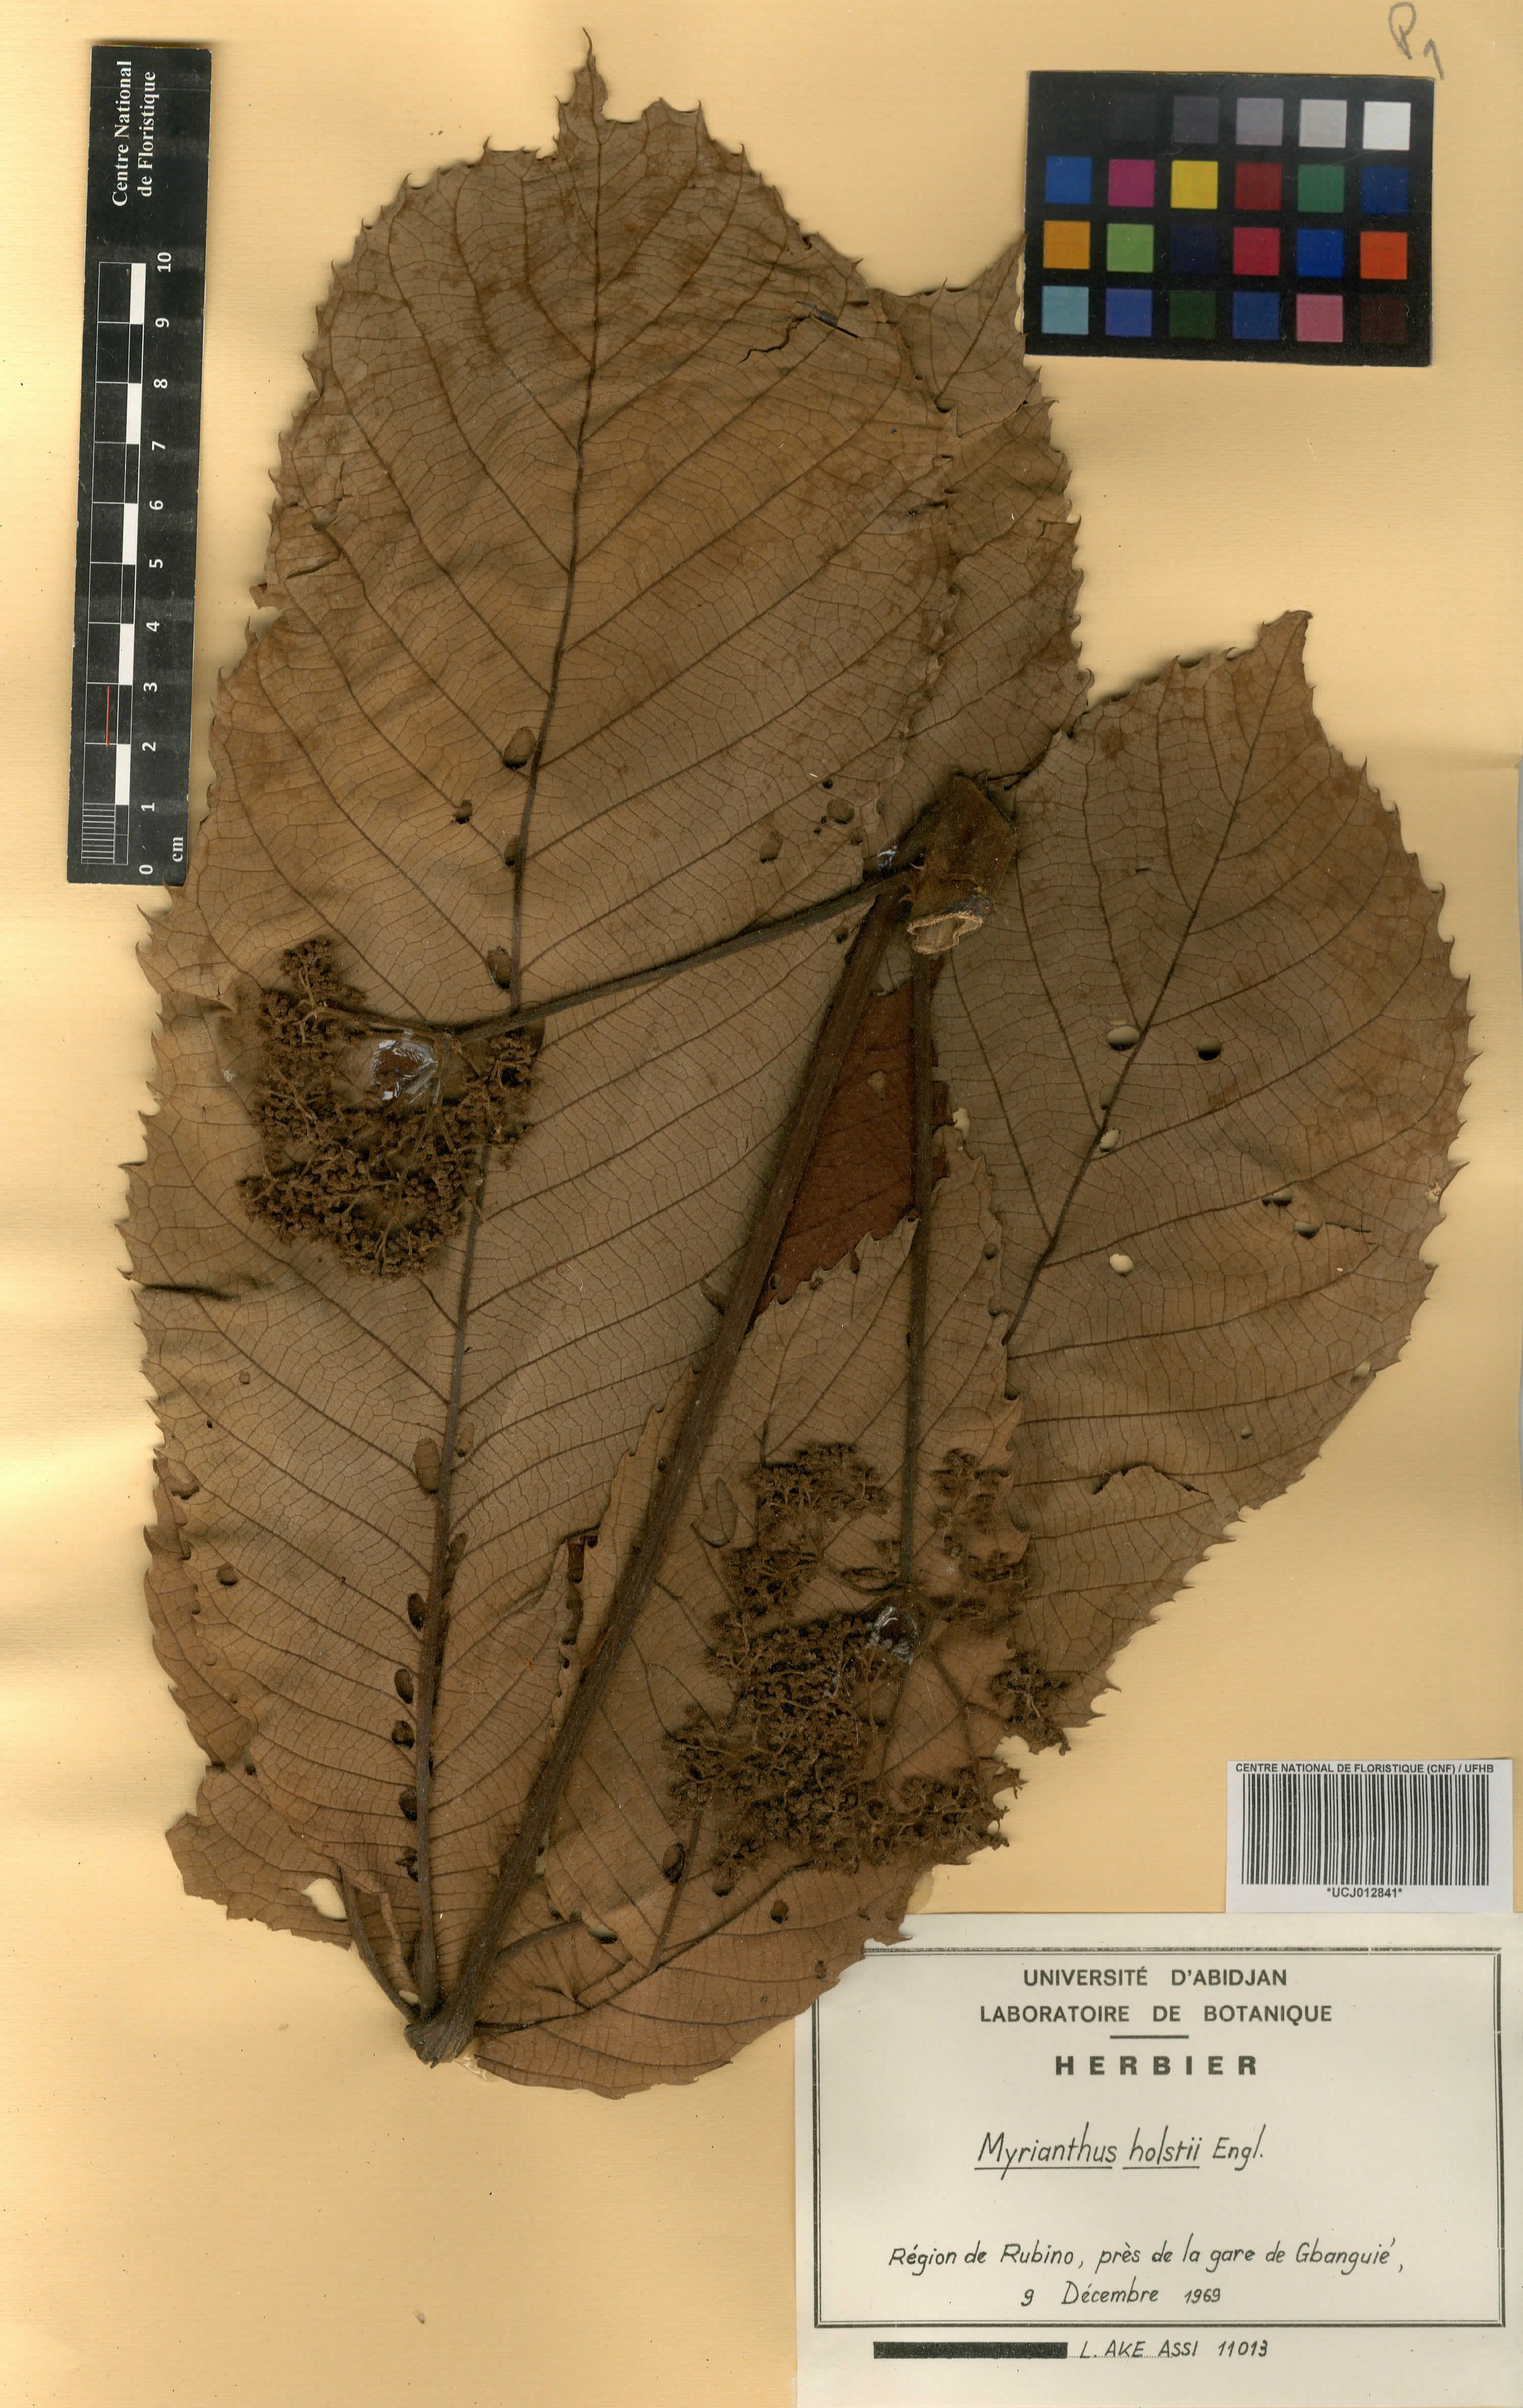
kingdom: Plantae
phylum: Tracheophyta
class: Magnoliopsida
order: Rosales
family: Urticaceae
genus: Myrianthus
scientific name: Myrianthus holstii
